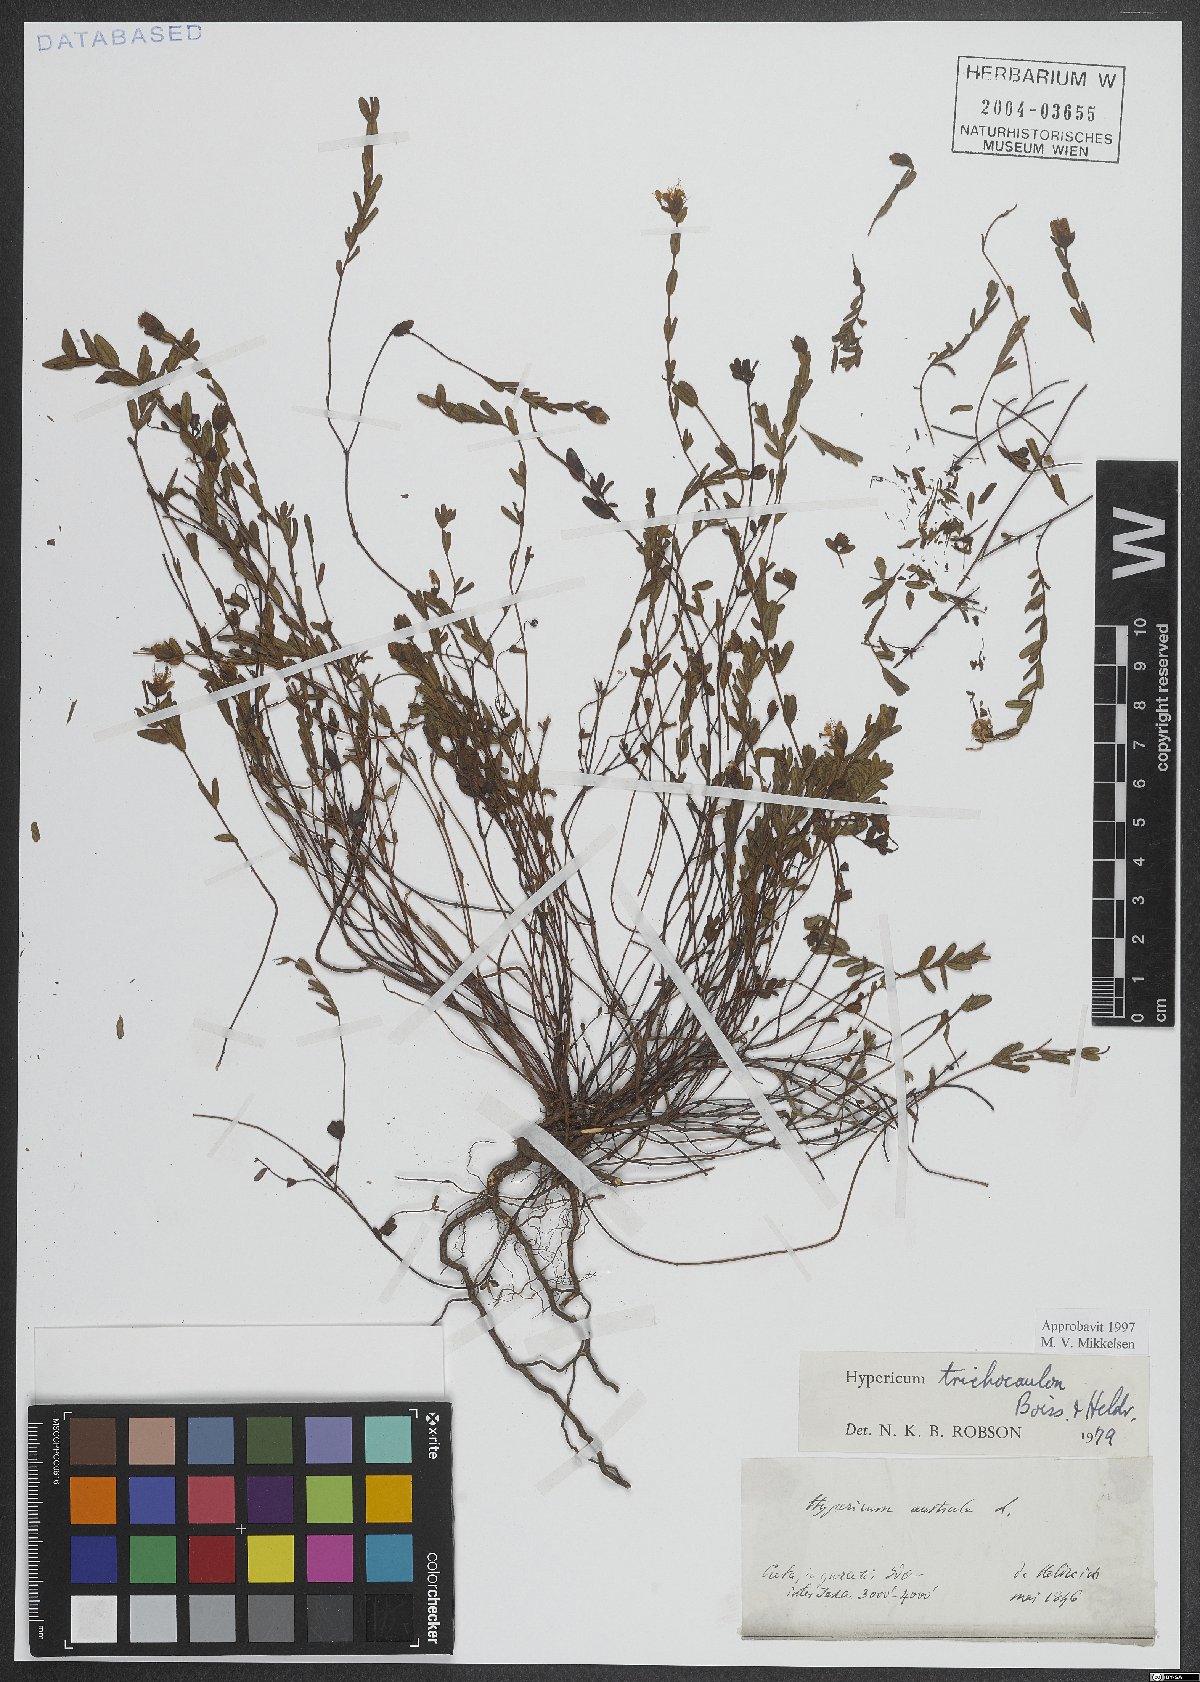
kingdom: Plantae
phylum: Tracheophyta
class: Magnoliopsida
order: Malpighiales
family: Hypericaceae
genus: Hypericum
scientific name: Hypericum trichocaulon
